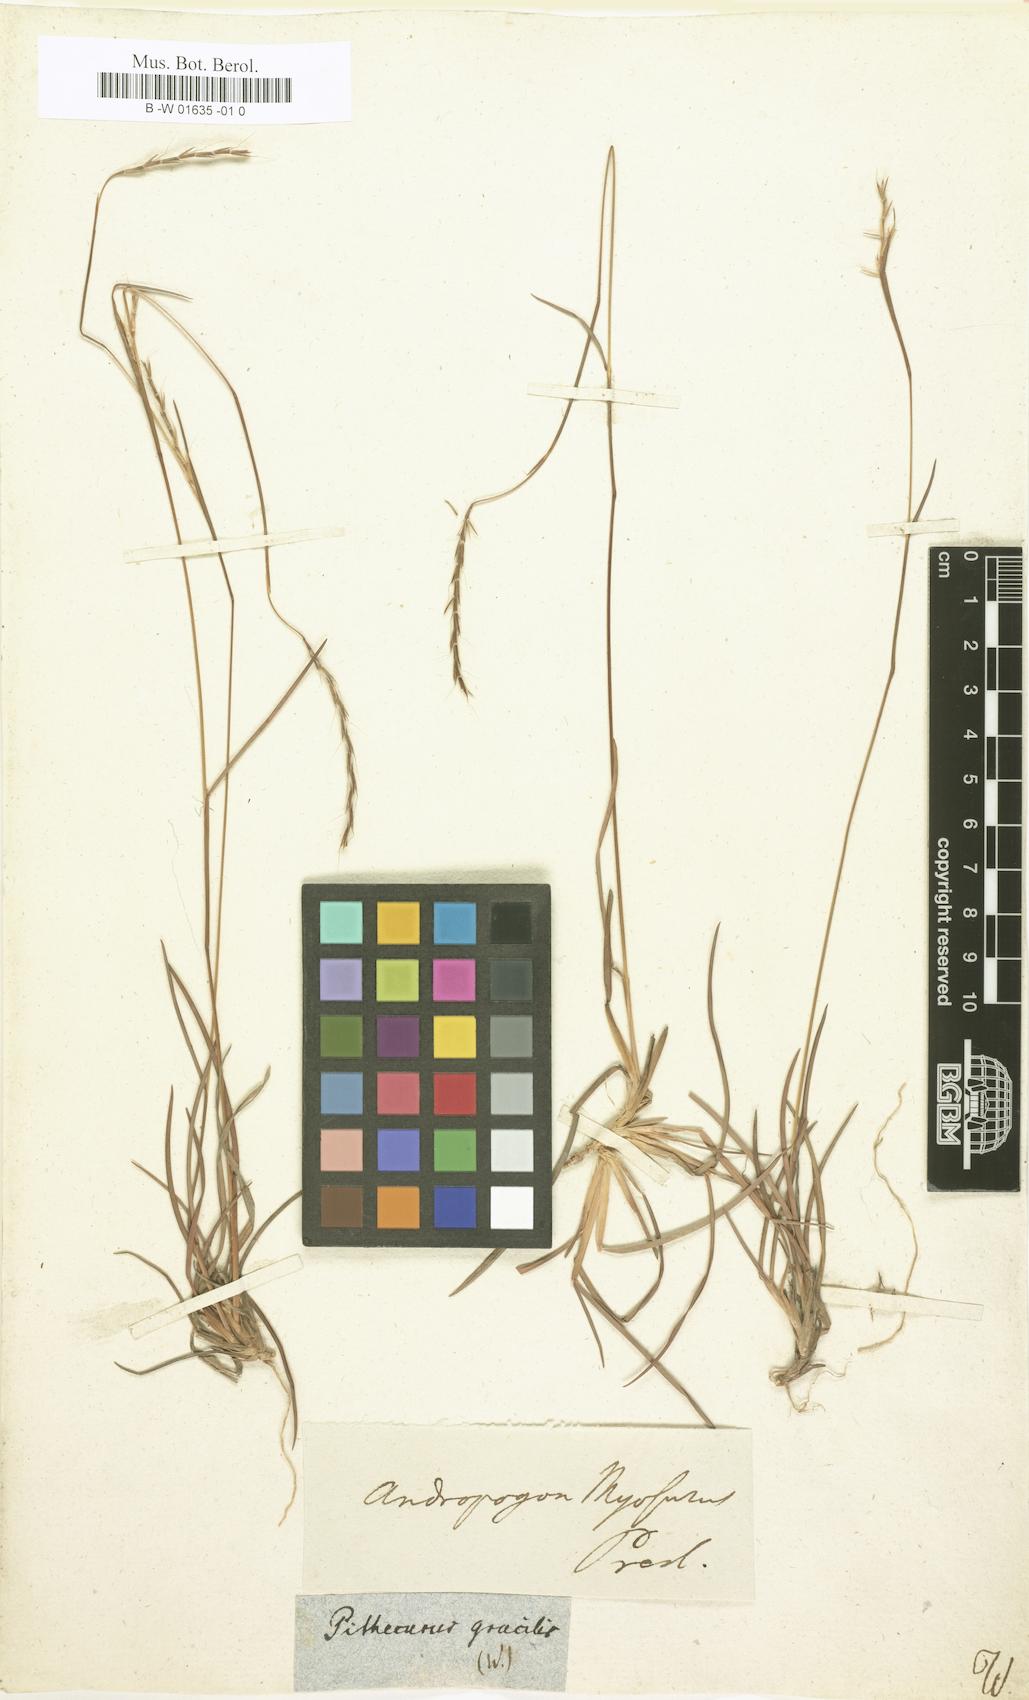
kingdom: Plantae
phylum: Tracheophyta
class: Liliopsida
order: Poales
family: Poaceae
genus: Andropogon
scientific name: Andropogon tener
